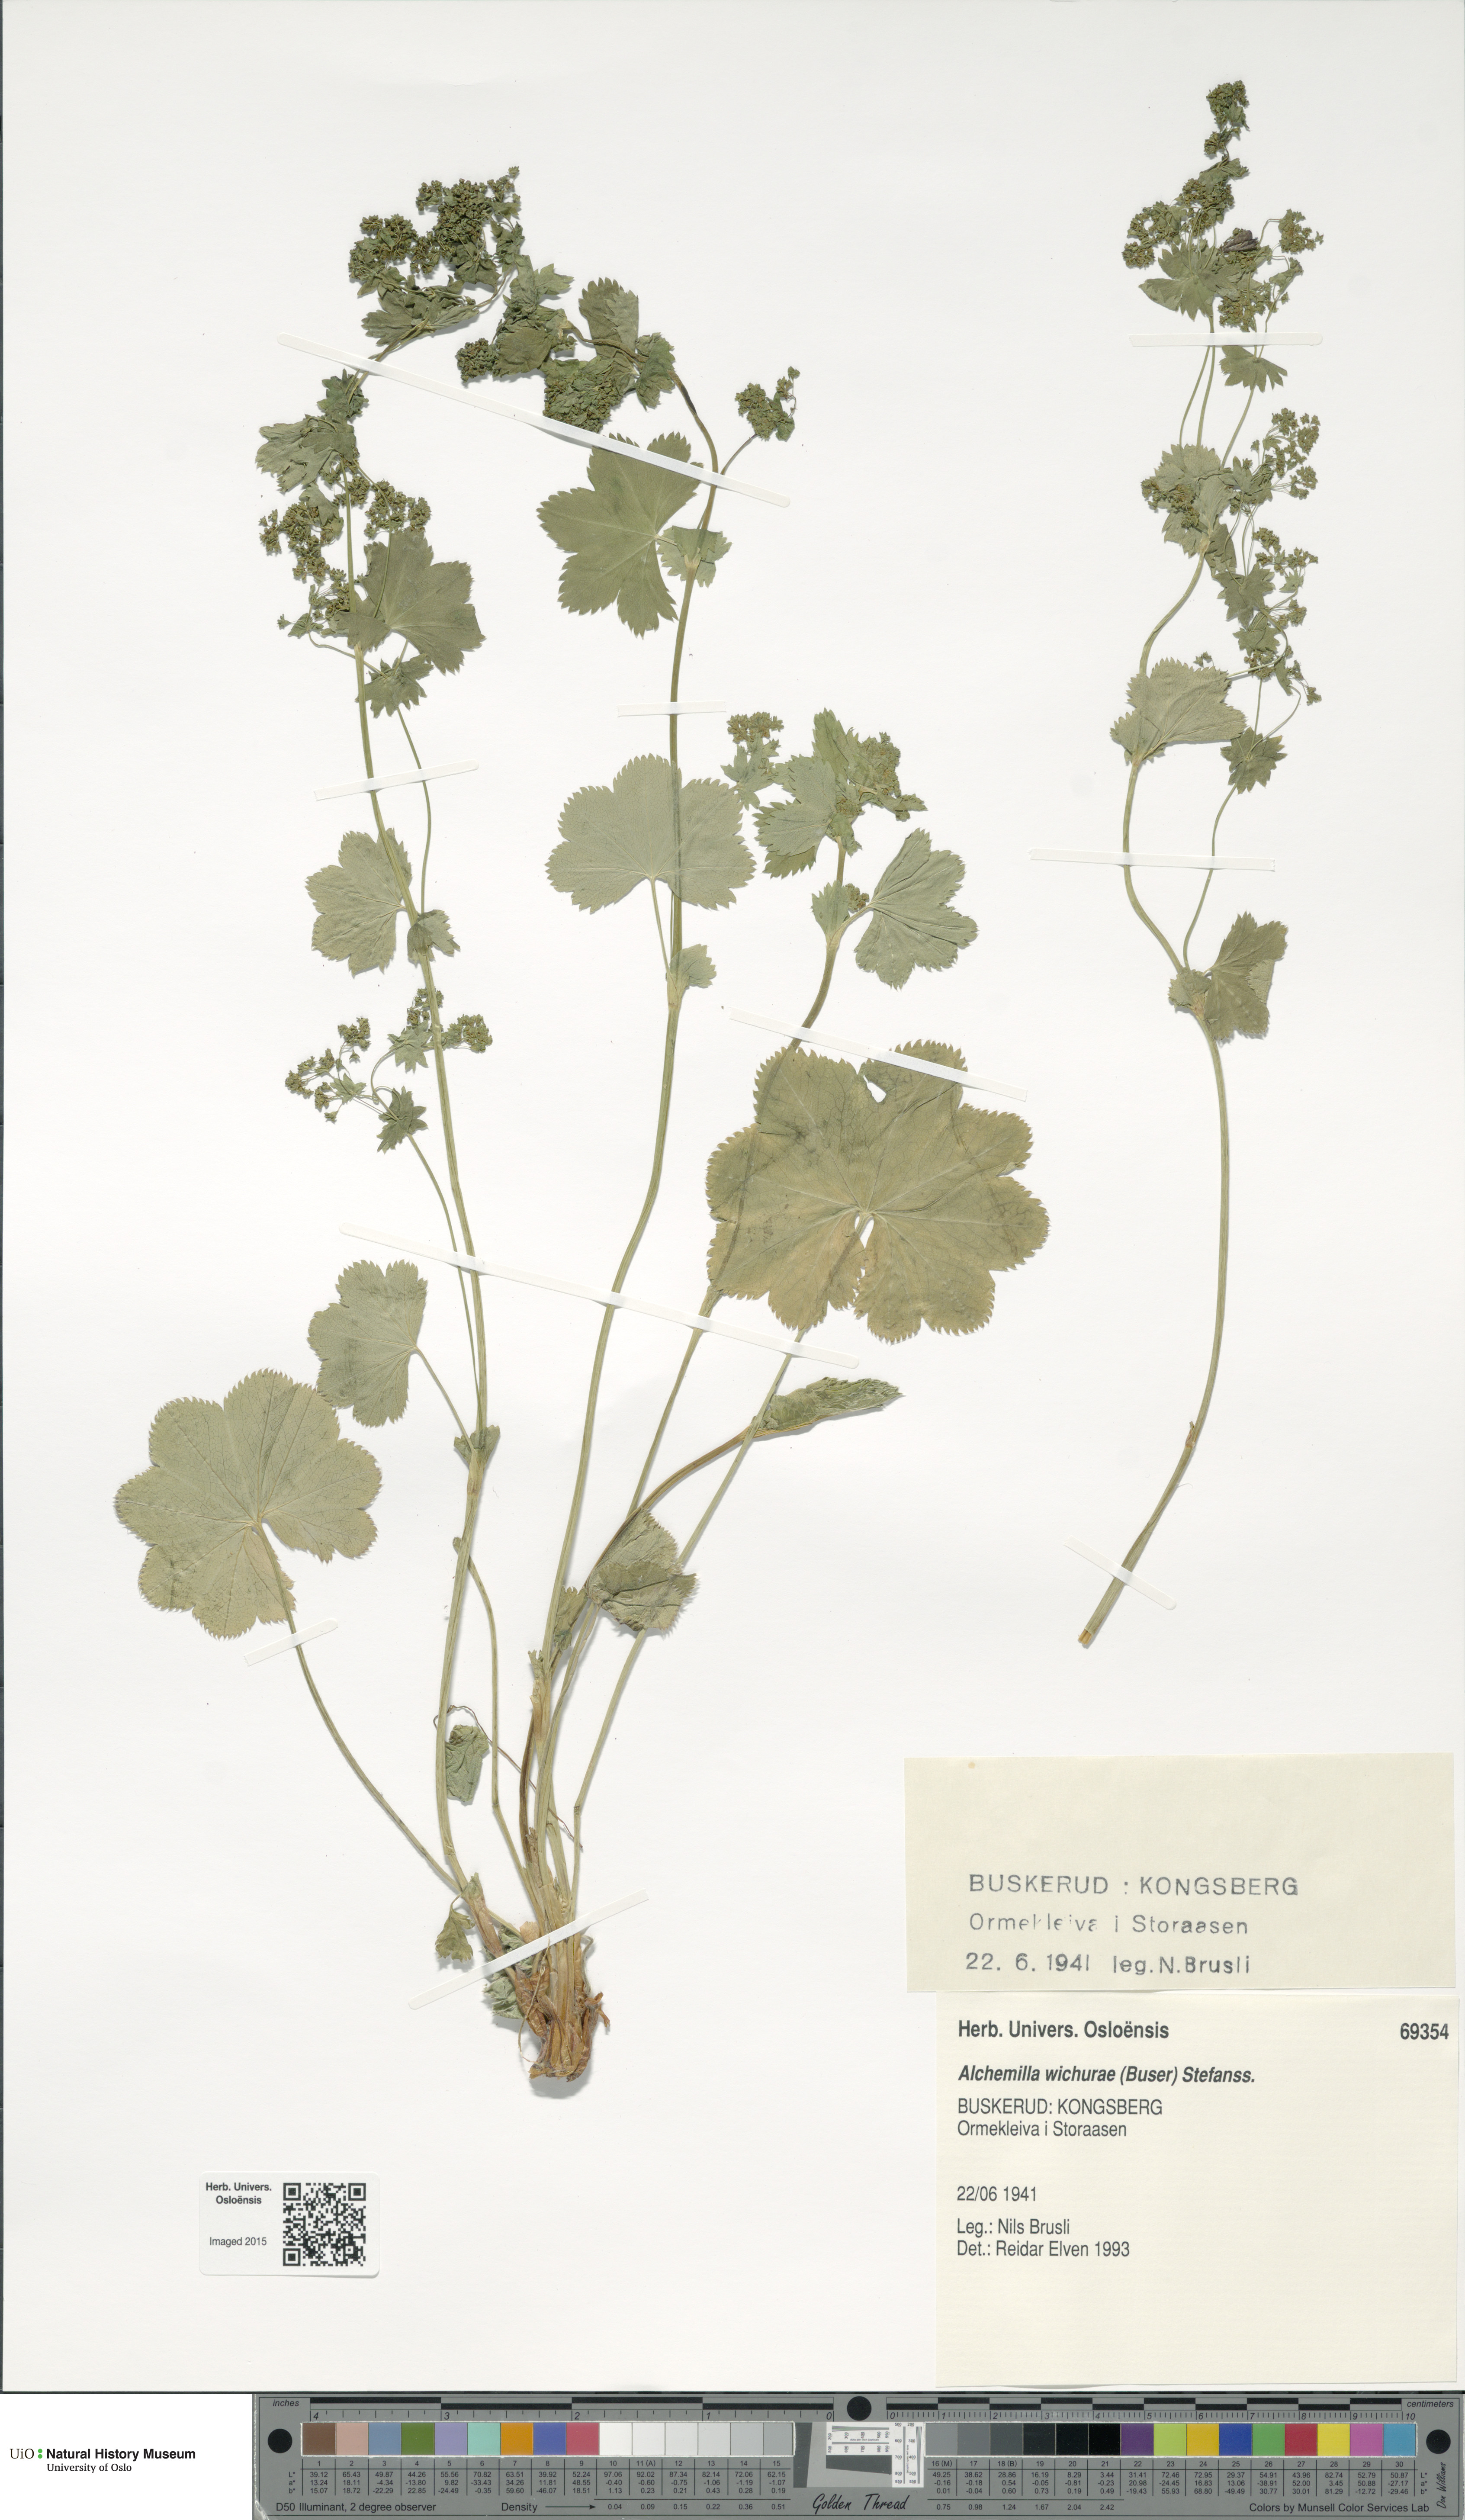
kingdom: Plantae
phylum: Tracheophyta
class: Magnoliopsida
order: Rosales
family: Rosaceae
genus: Alchemilla
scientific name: Alchemilla wichurae
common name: Rock lady's mantle
